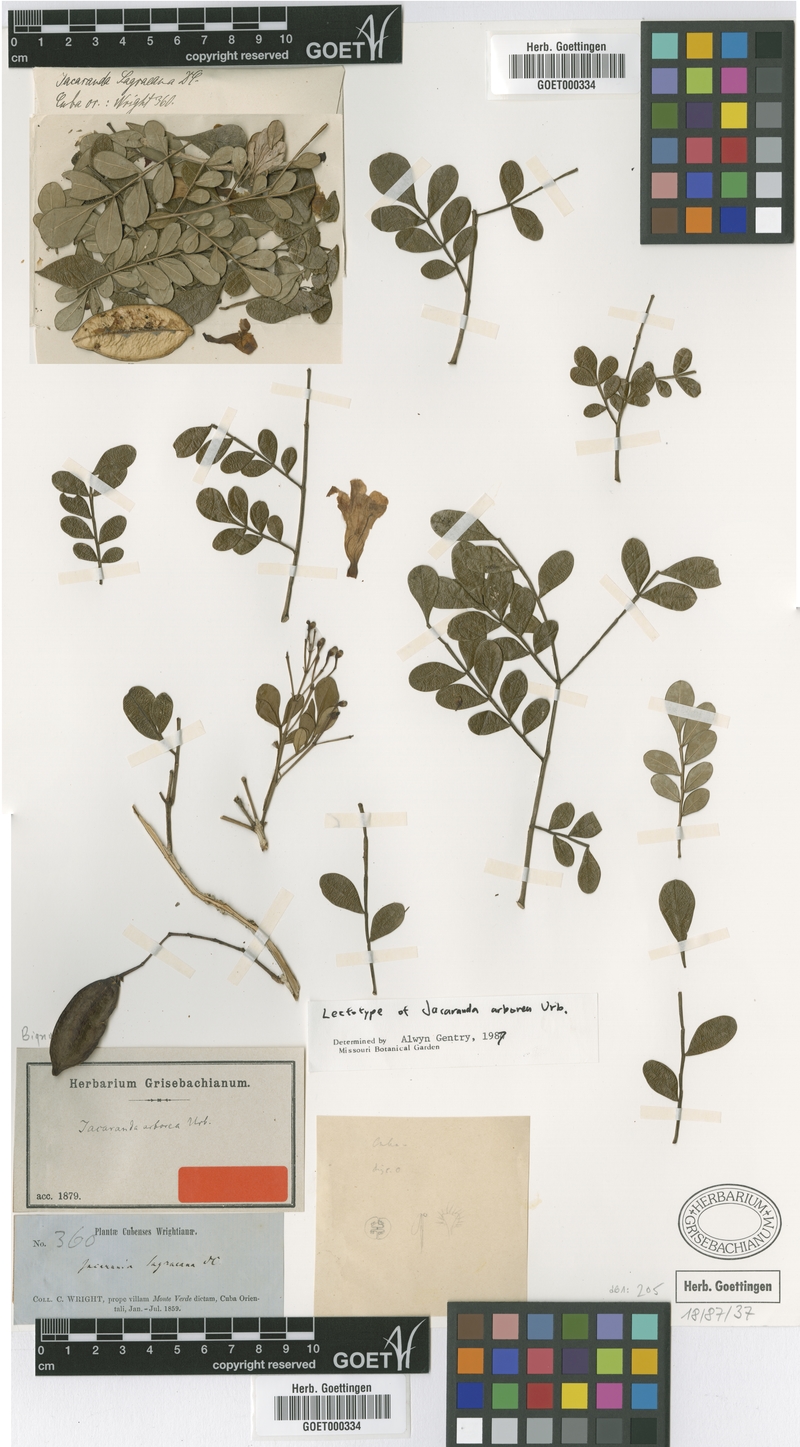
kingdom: Plantae
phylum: Tracheophyta
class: Magnoliopsida
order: Lamiales
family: Bignoniaceae
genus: Jacaranda
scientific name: Jacaranda arborea
